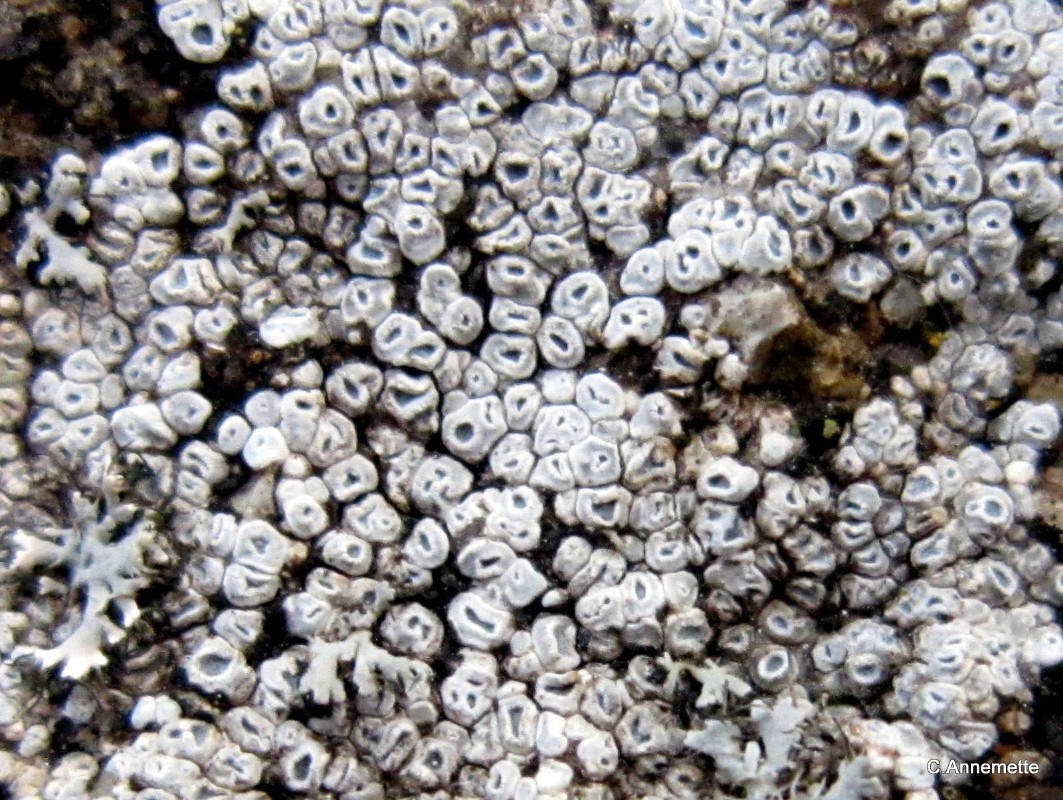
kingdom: Fungi
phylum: Ascomycota
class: Lecanoromycetes
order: Pertusariales
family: Megasporaceae
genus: Circinaria
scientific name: Circinaria contorta
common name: indviklet hulskivelav
